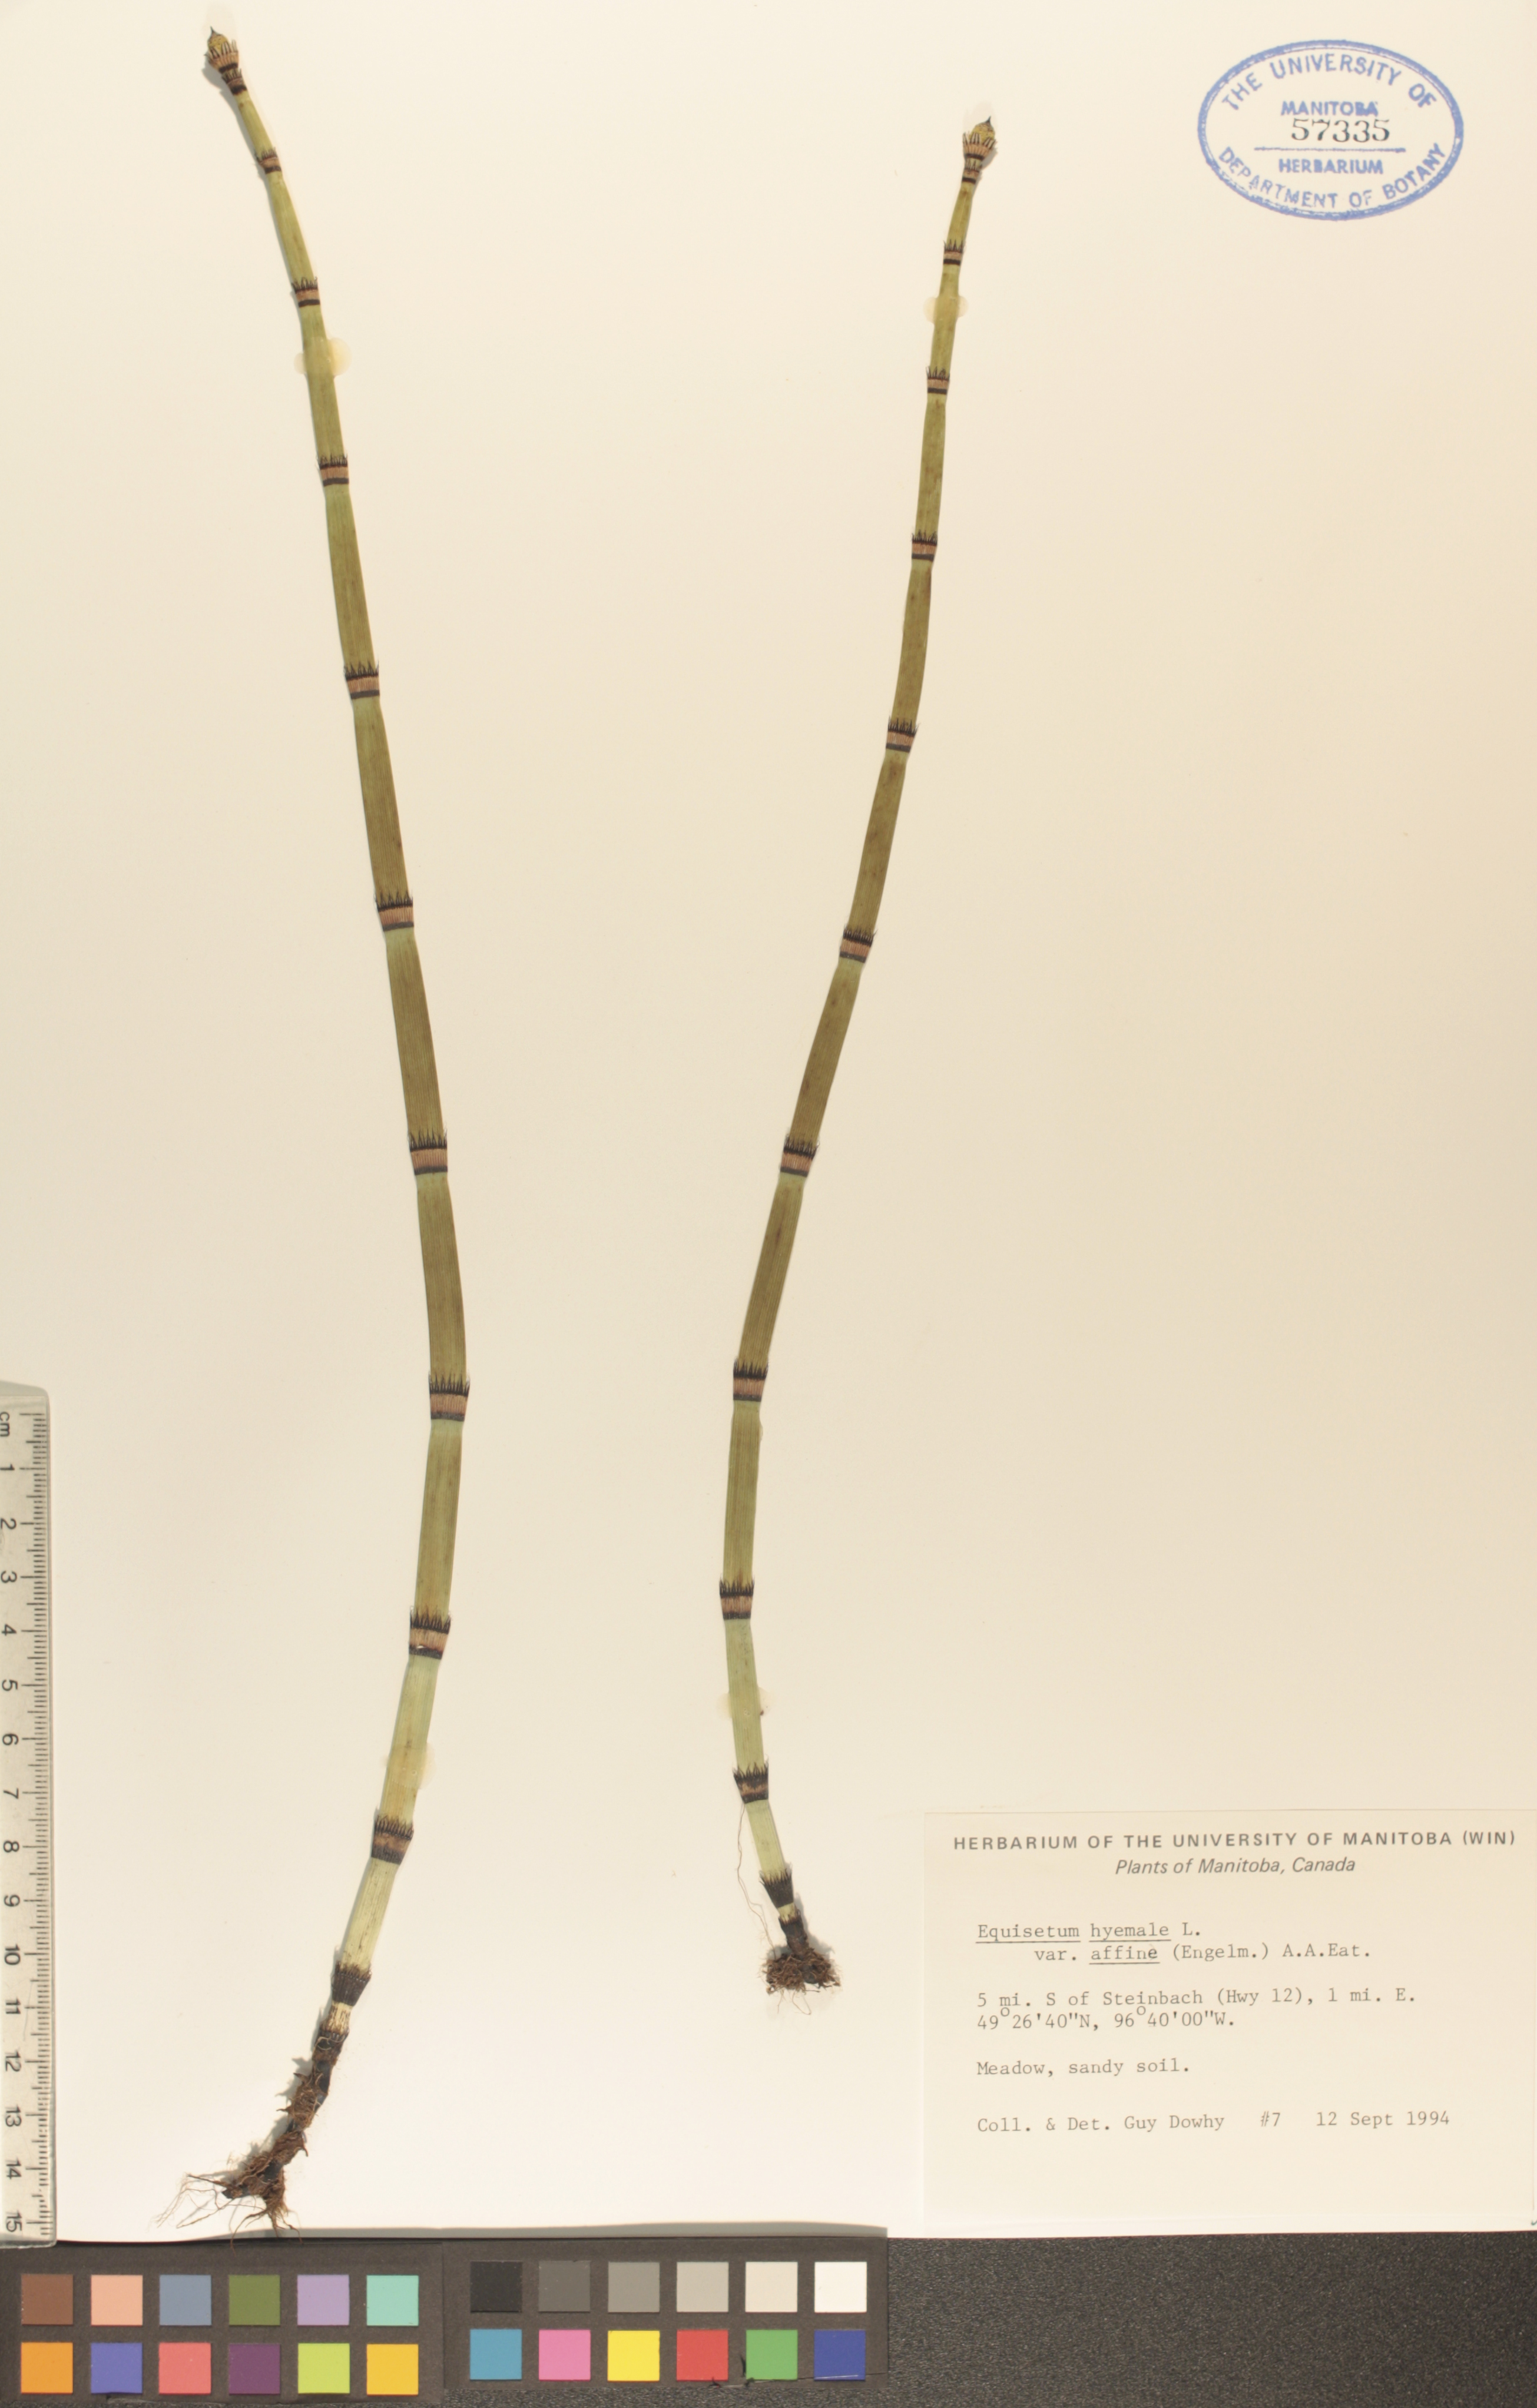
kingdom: Plantae
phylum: Tracheophyta
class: Polypodiopsida
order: Equisetales
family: Equisetaceae
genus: Equisetum
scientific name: Equisetum praealtum
